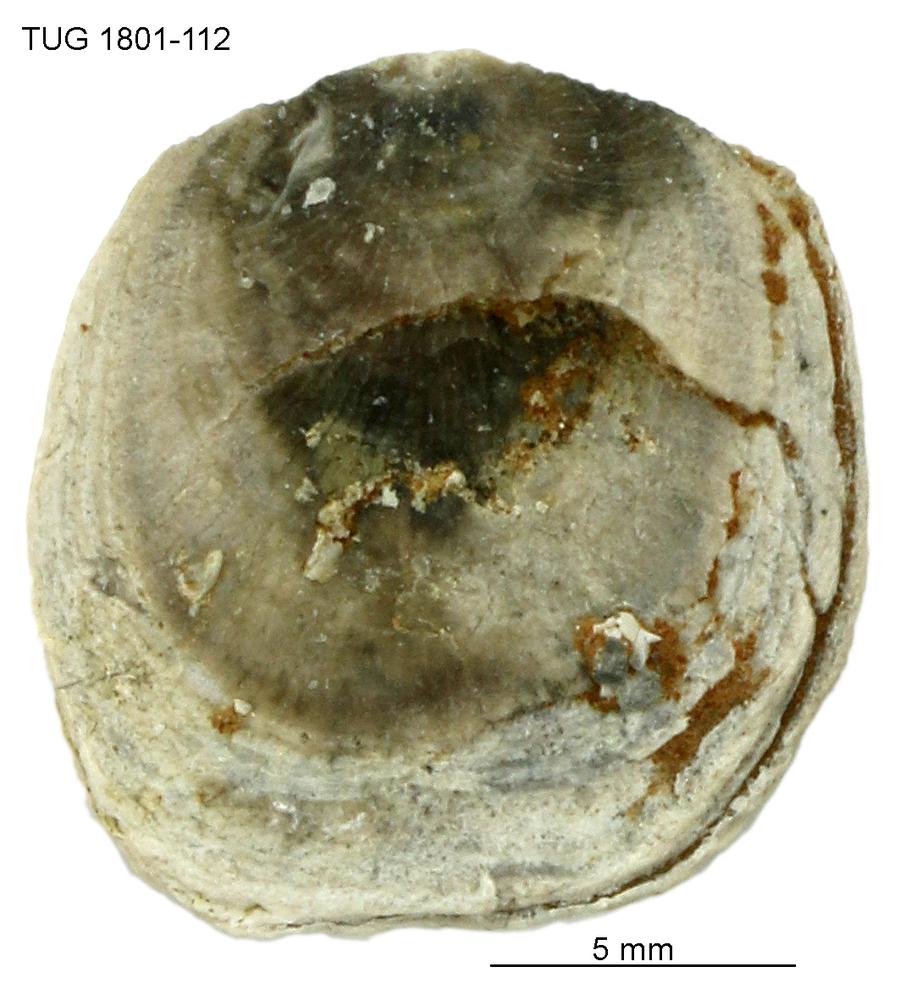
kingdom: Animalia
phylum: Brachiopoda
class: Craniata
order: Craniida
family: Craniidae
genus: Philhedra
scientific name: Philhedra
